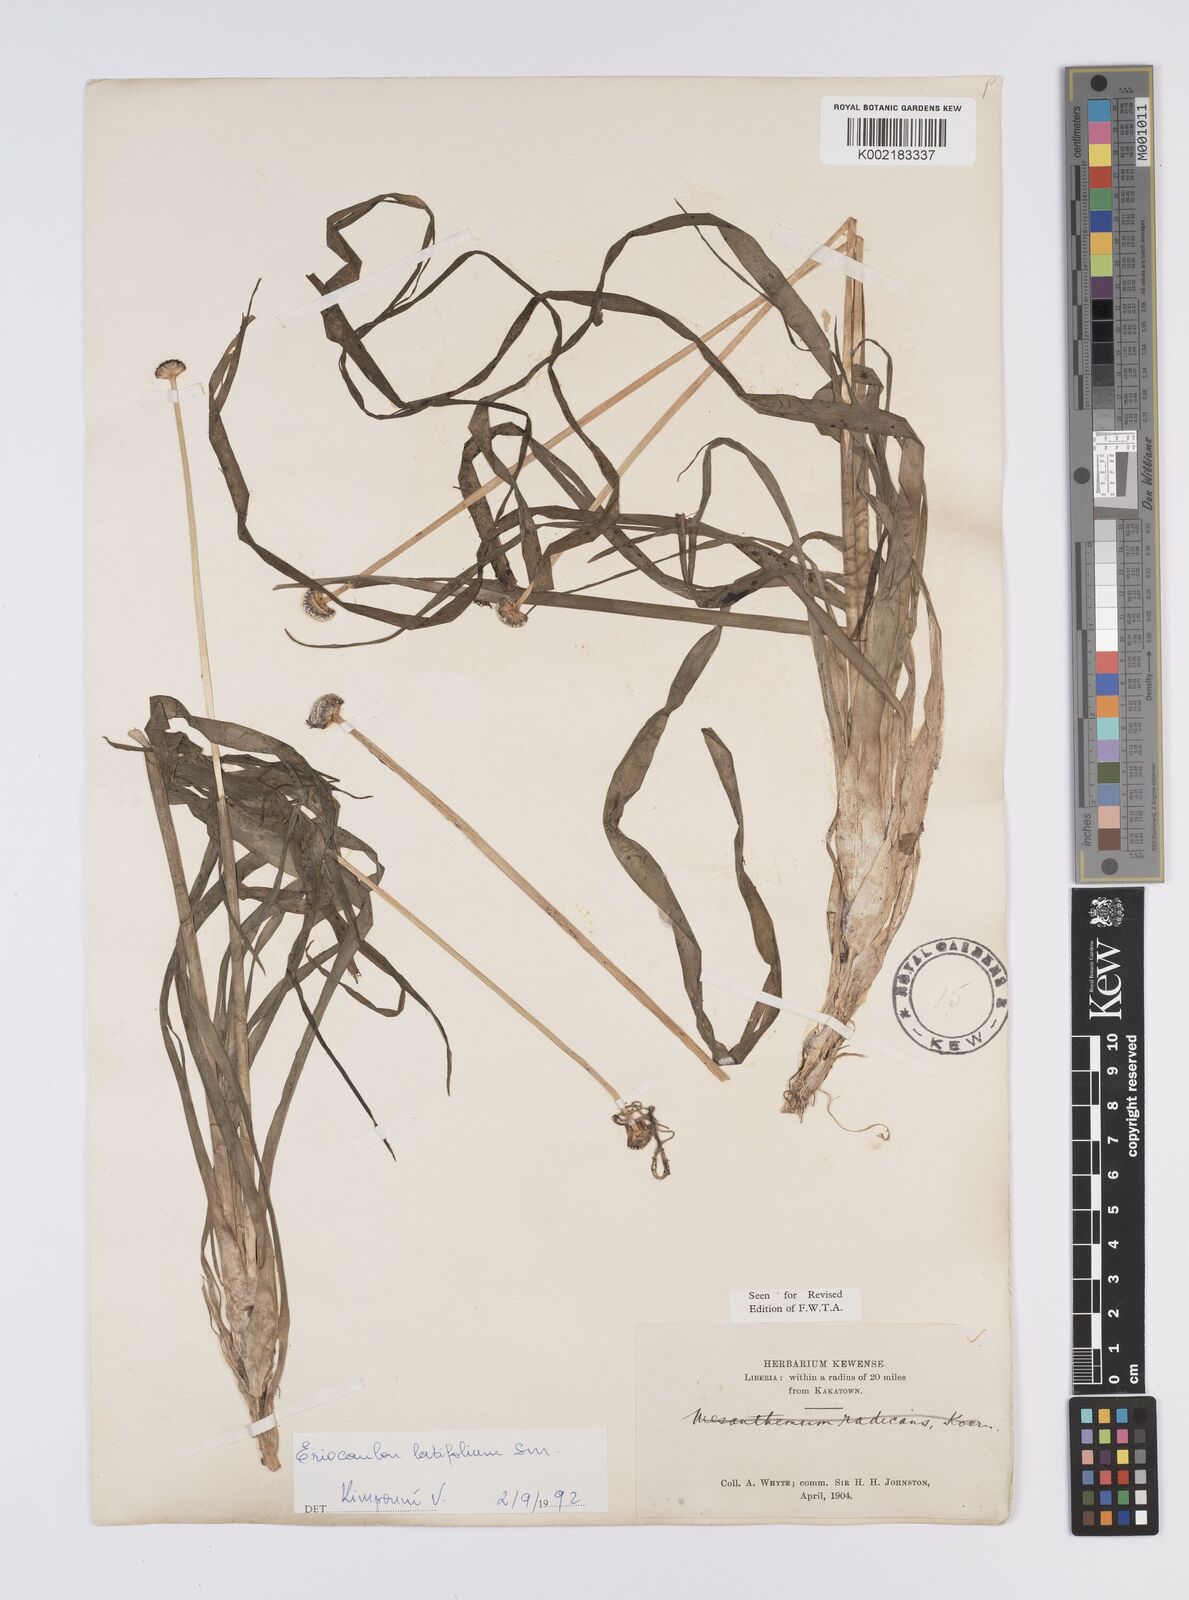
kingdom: Plantae
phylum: Tracheophyta
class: Liliopsida
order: Poales
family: Eriocaulaceae
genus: Eriocaulon
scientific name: Eriocaulon latifolium
